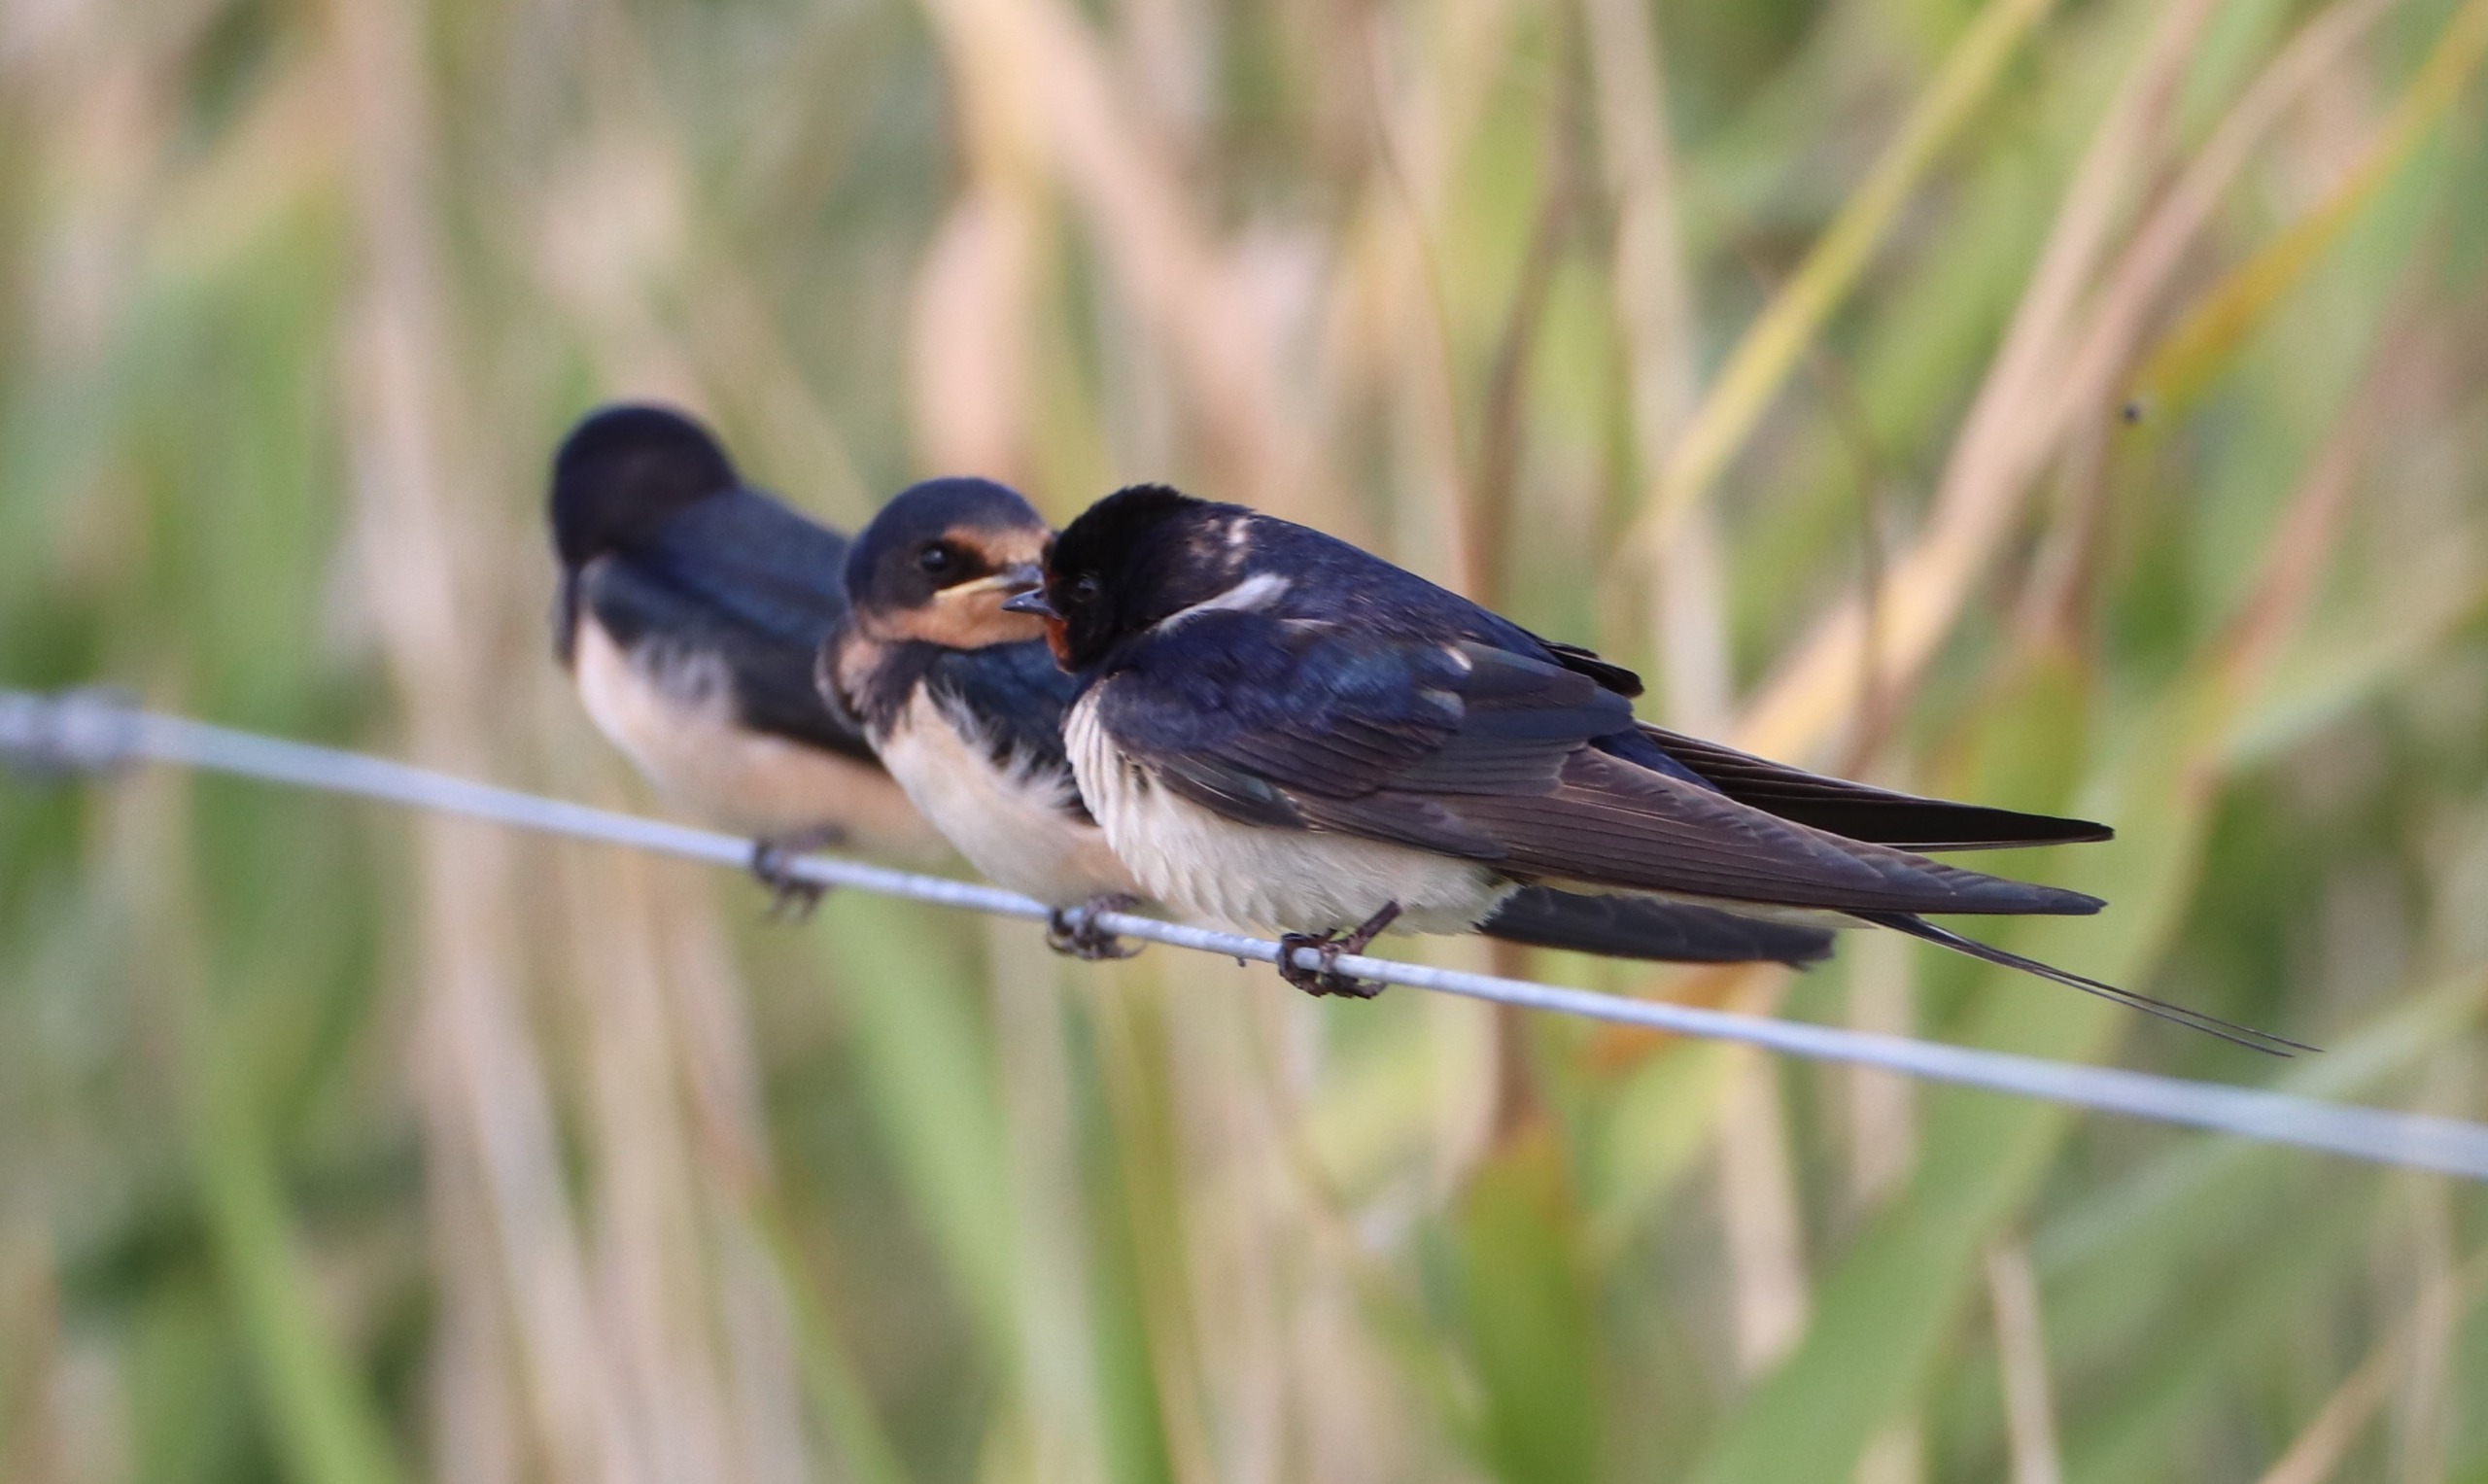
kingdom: Animalia
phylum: Chordata
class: Aves
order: Passeriformes
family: Hirundinidae
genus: Hirundo
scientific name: Hirundo rustica
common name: Landsvale
